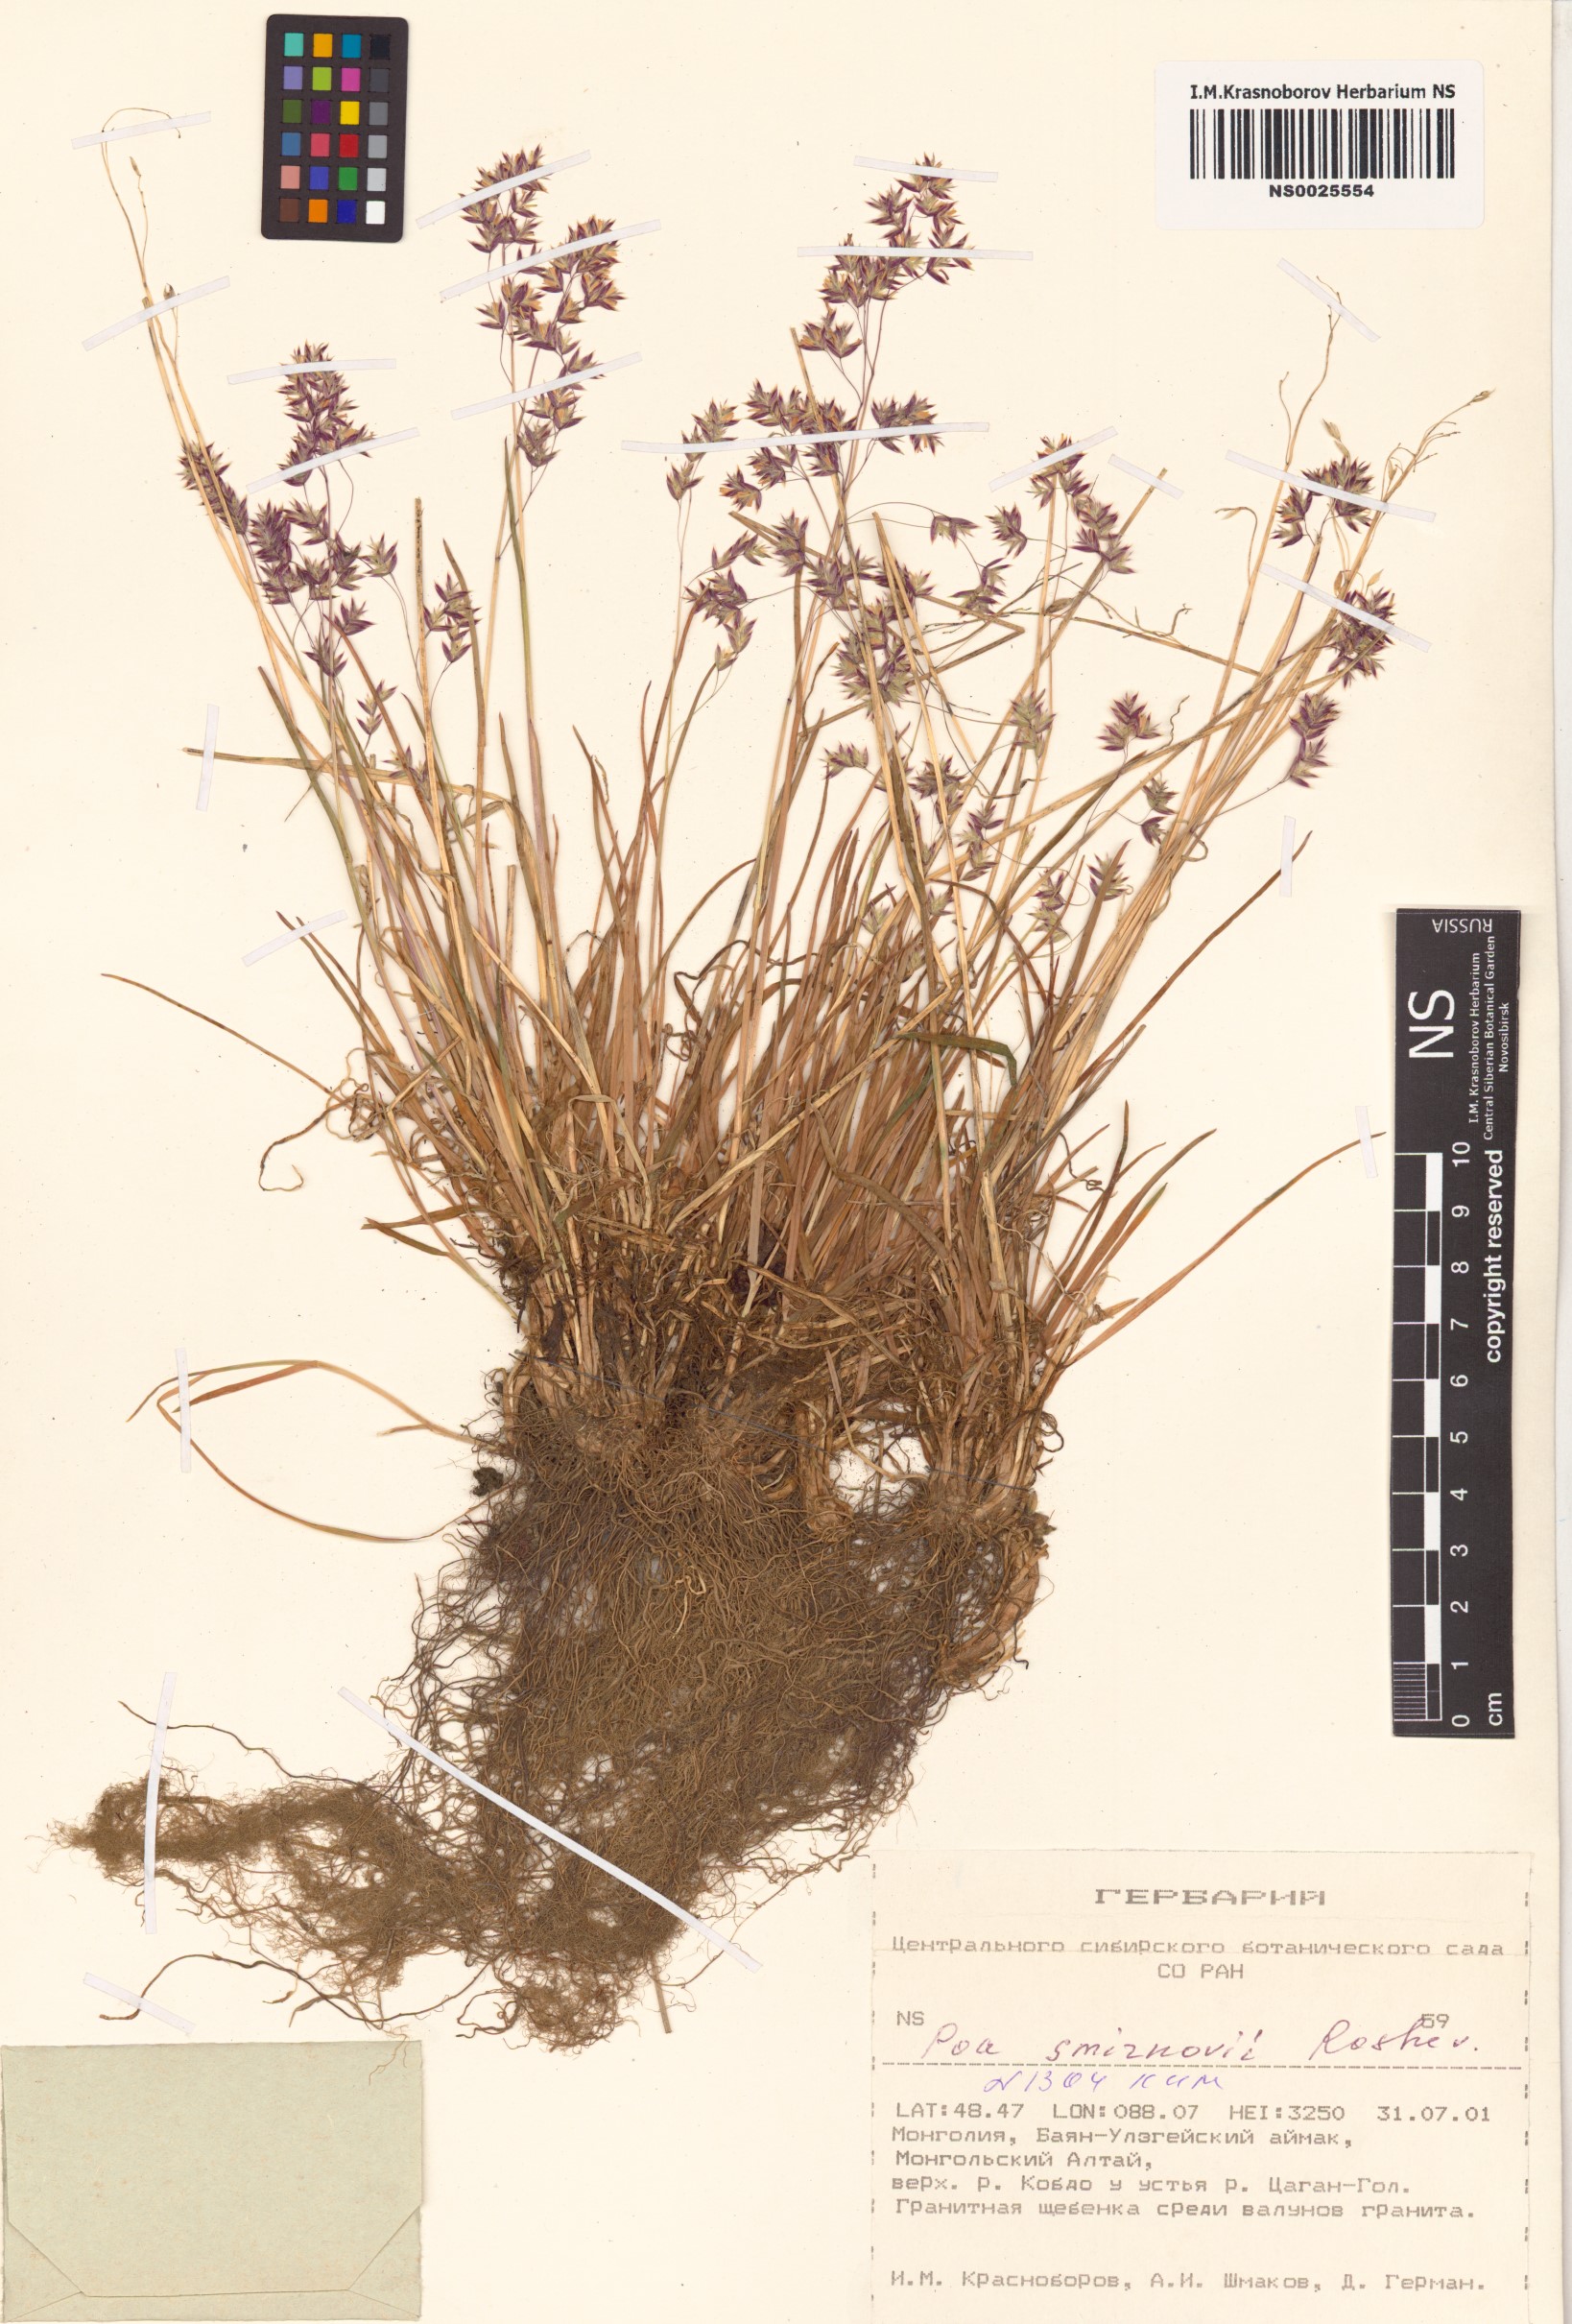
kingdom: Plantae
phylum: Tracheophyta
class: Liliopsida
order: Poales
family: Poaceae
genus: Poa
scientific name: Poa smirnowii
